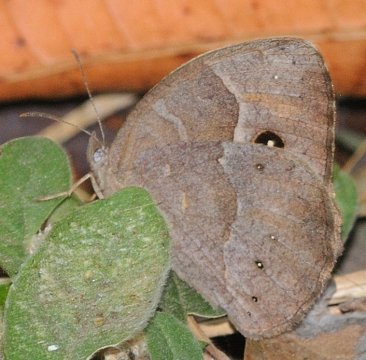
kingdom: Animalia
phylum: Arthropoda
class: Insecta
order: Lepidoptera
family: Nymphalidae
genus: Bicyclus
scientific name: Bicyclus cottrelli
